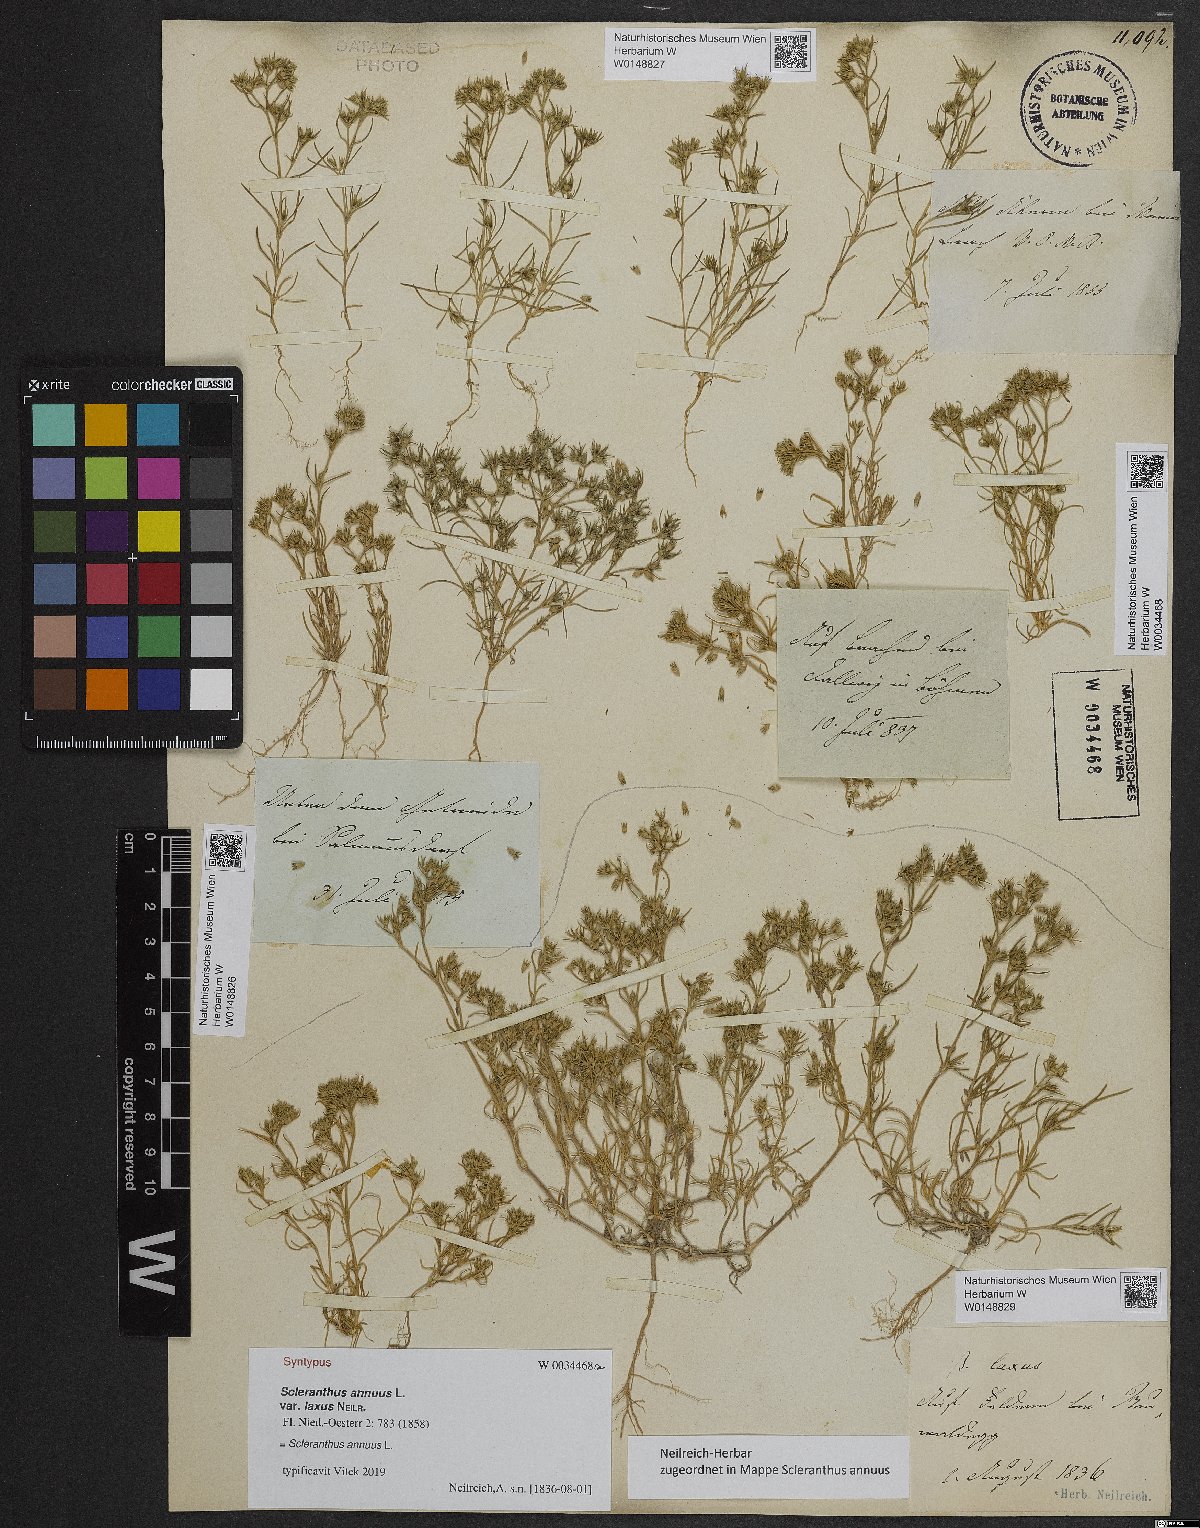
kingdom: Plantae
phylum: Tracheophyta
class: Magnoliopsida
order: Caryophyllales
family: Caryophyllaceae
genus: Scleranthus
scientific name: Scleranthus annuus
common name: Annual knawel
